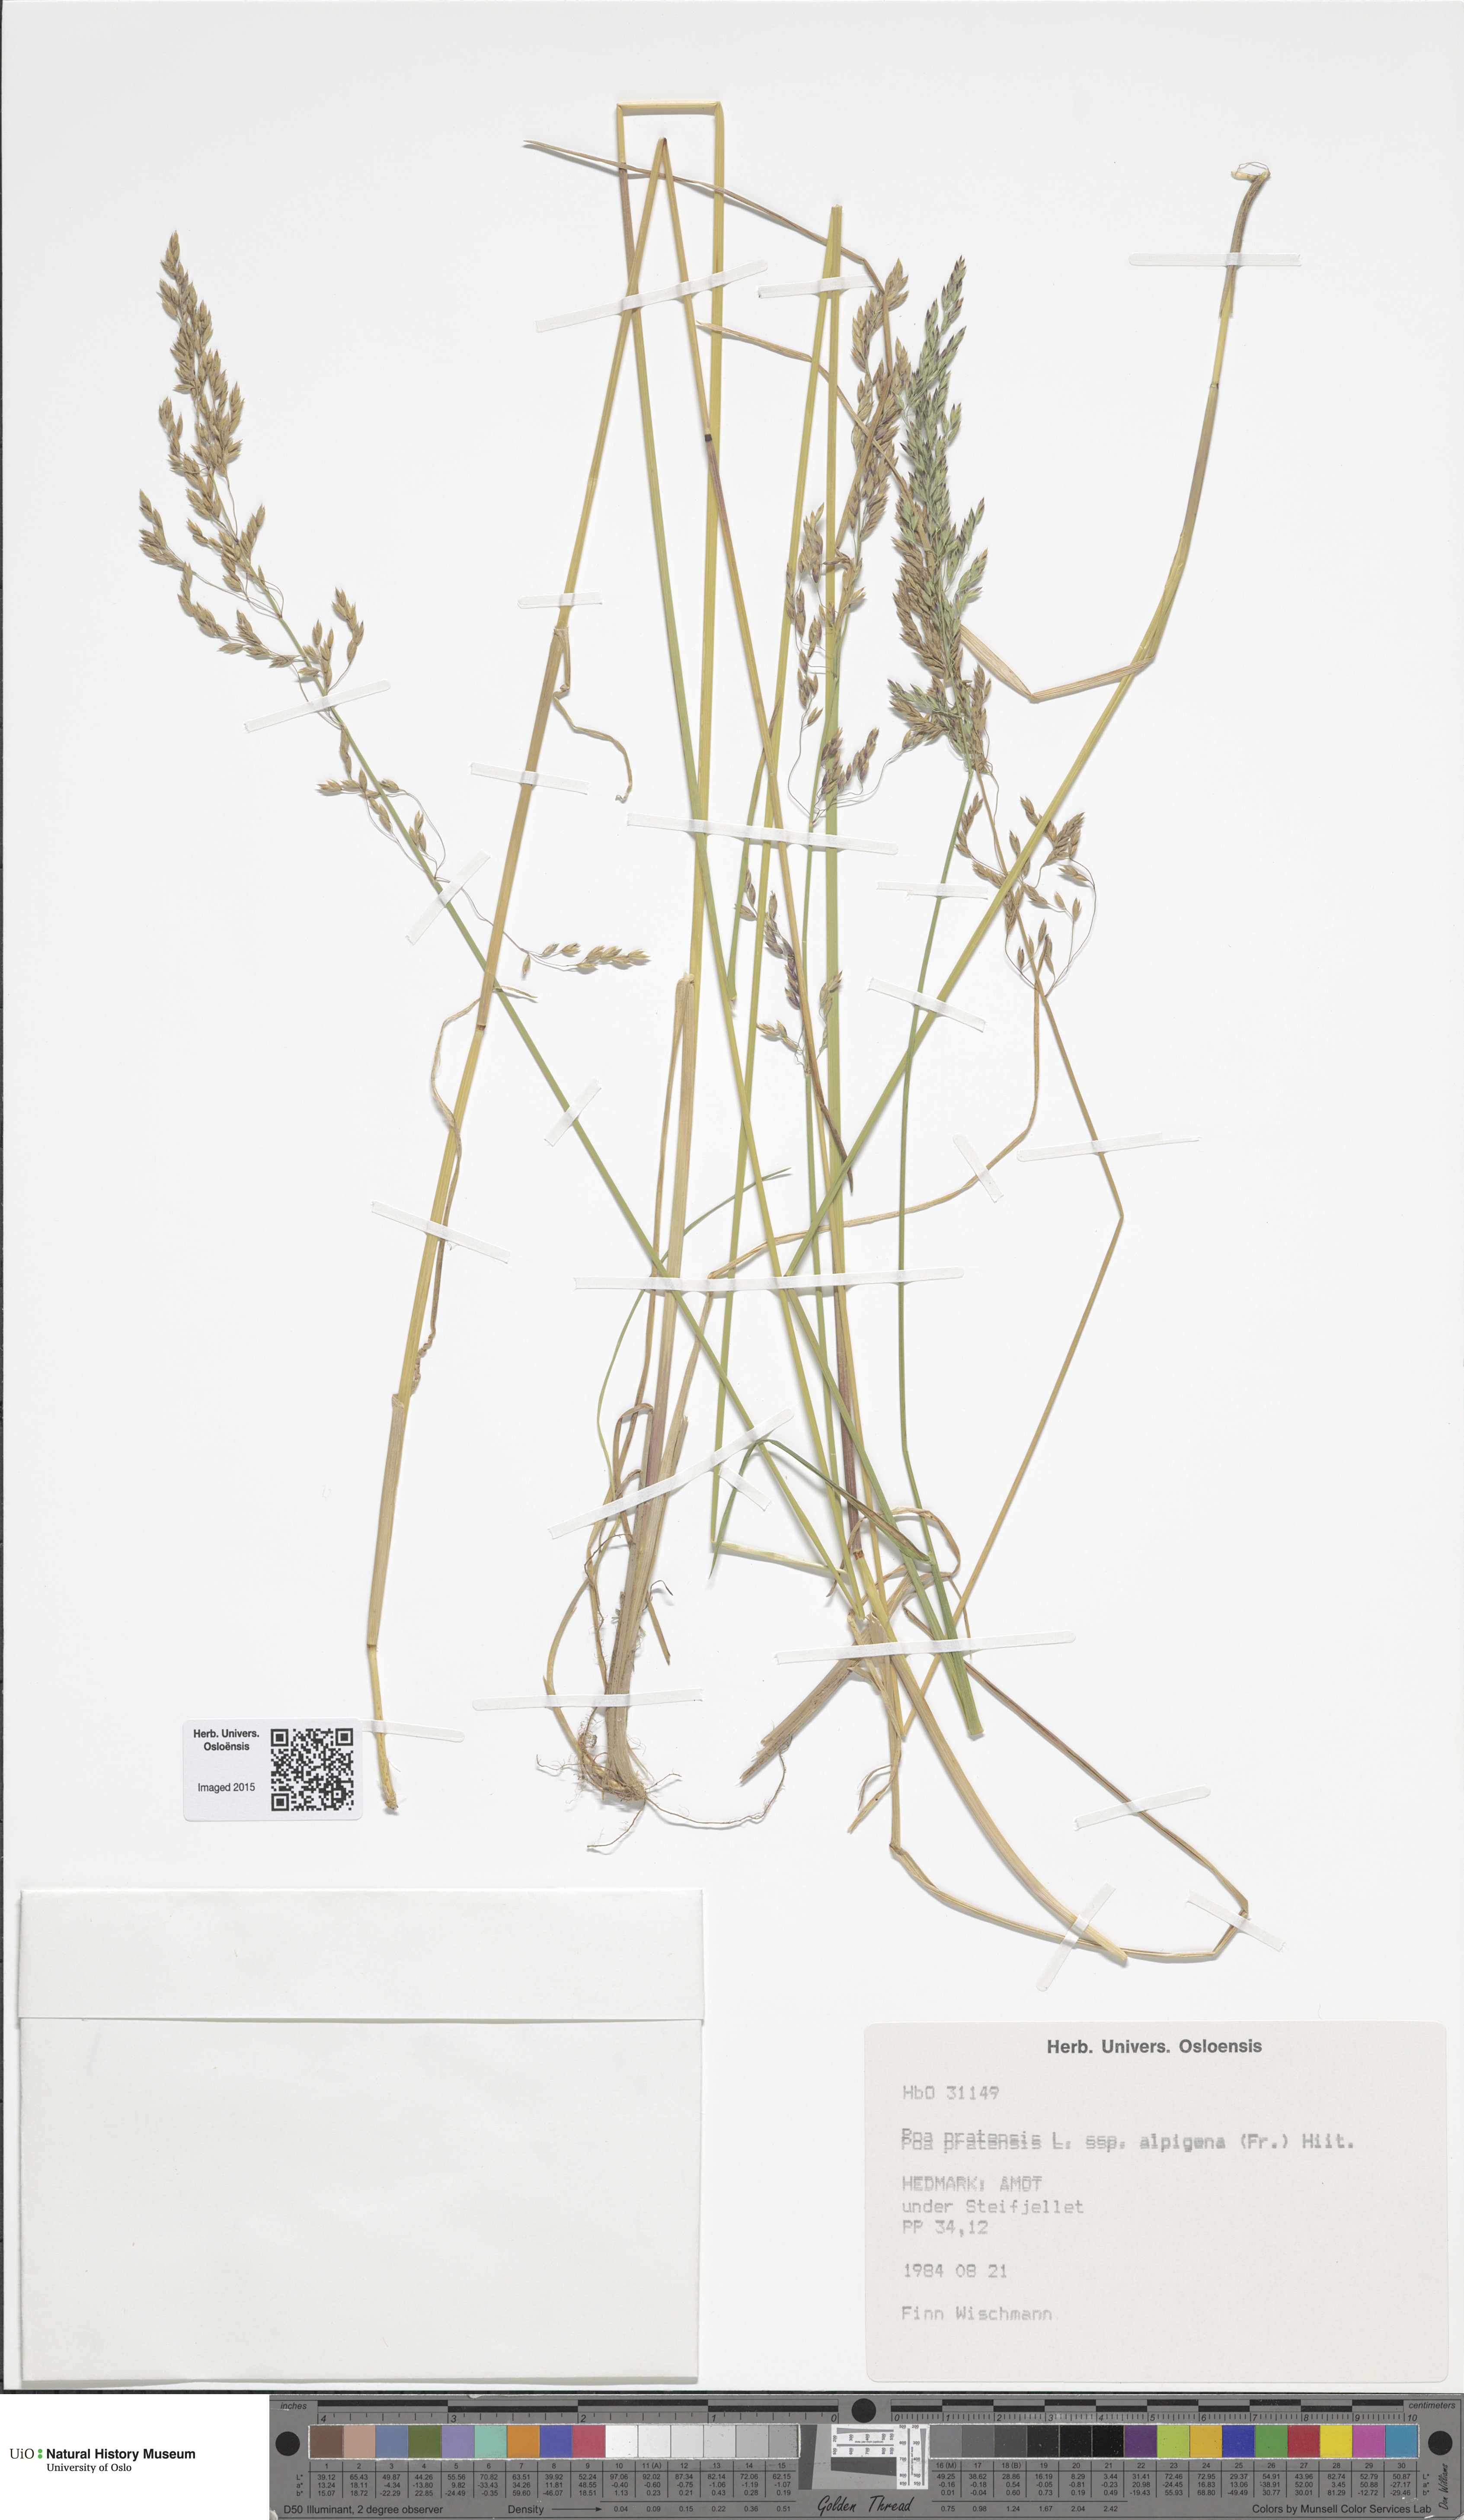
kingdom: Plantae
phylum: Tracheophyta
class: Liliopsida
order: Poales
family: Poaceae
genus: Poa
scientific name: Poa alpigena
